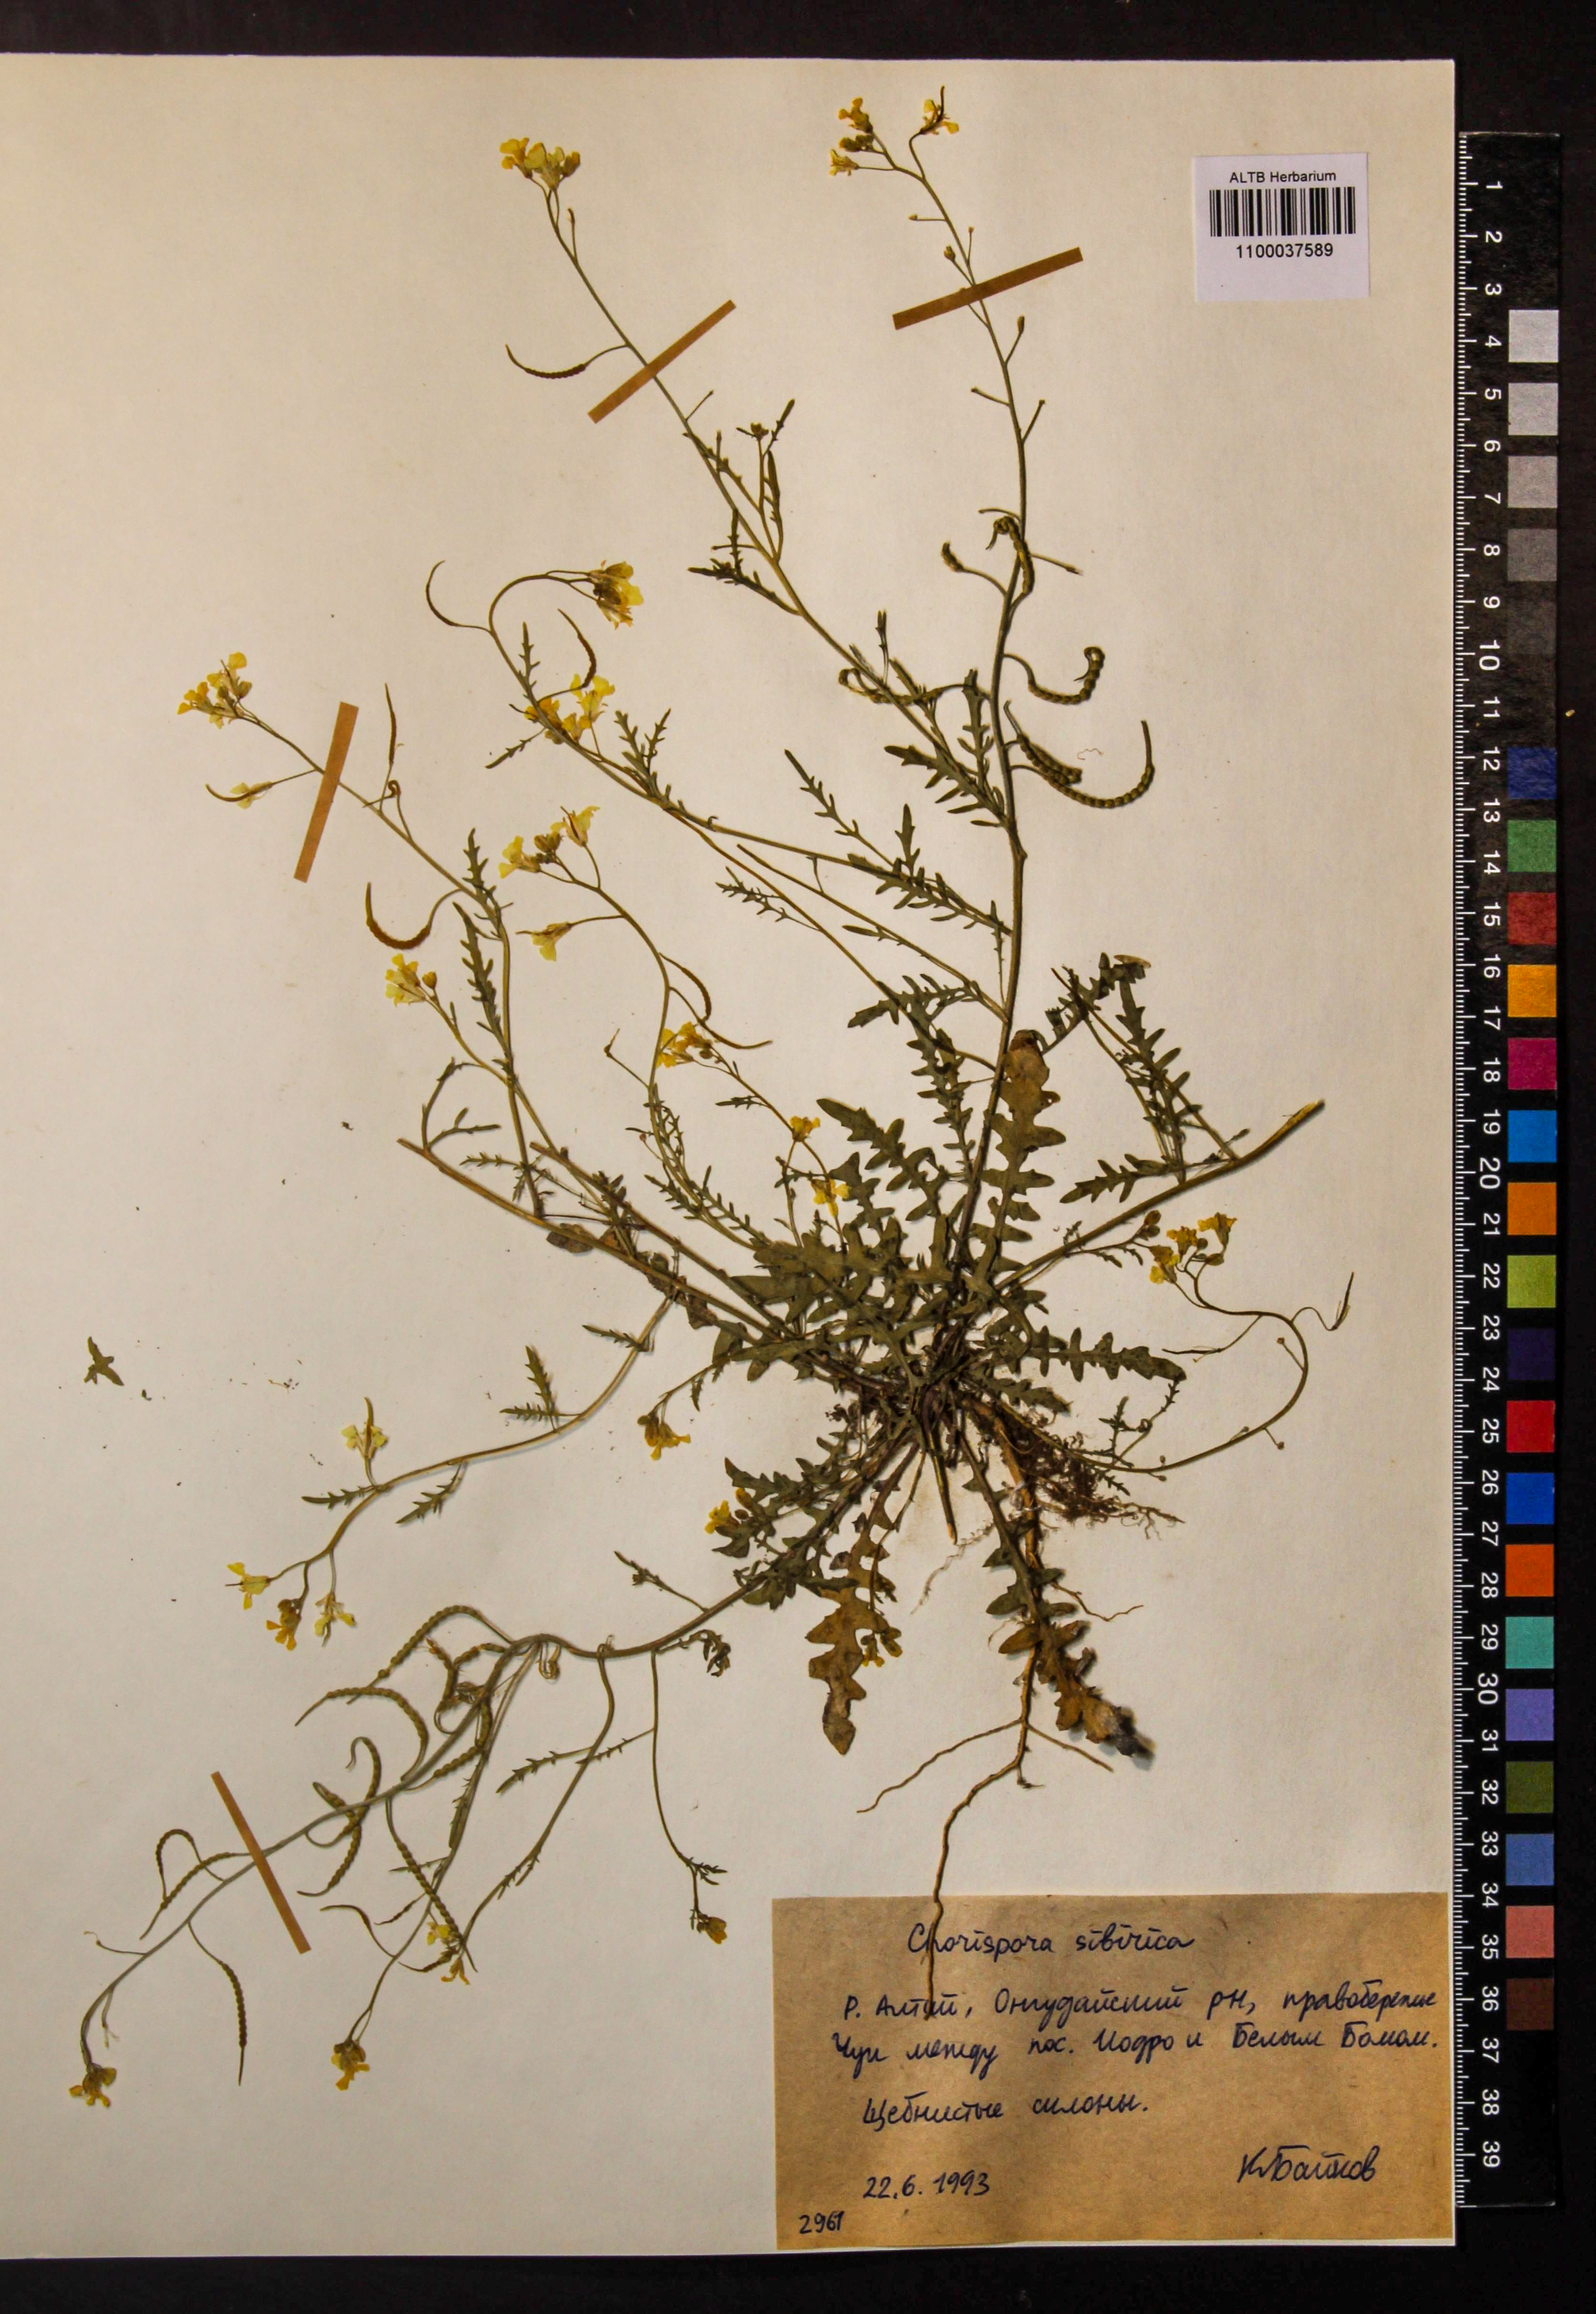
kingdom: Plantae
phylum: Tracheophyta
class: Magnoliopsida
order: Brassicales
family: Brassicaceae
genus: Chorispora
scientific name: Chorispora sibirica
